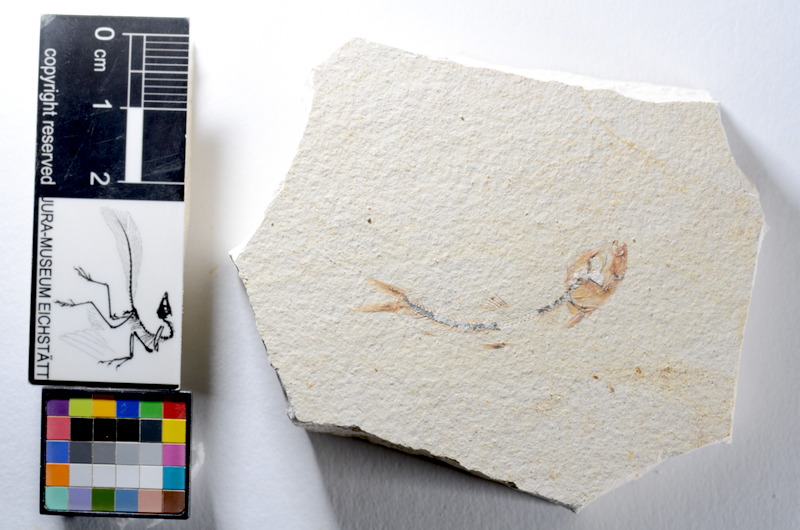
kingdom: Animalia
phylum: Chordata
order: Salmoniformes
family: Orthogonikleithridae
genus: Orthogonikleithrus
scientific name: Orthogonikleithrus hoelli
